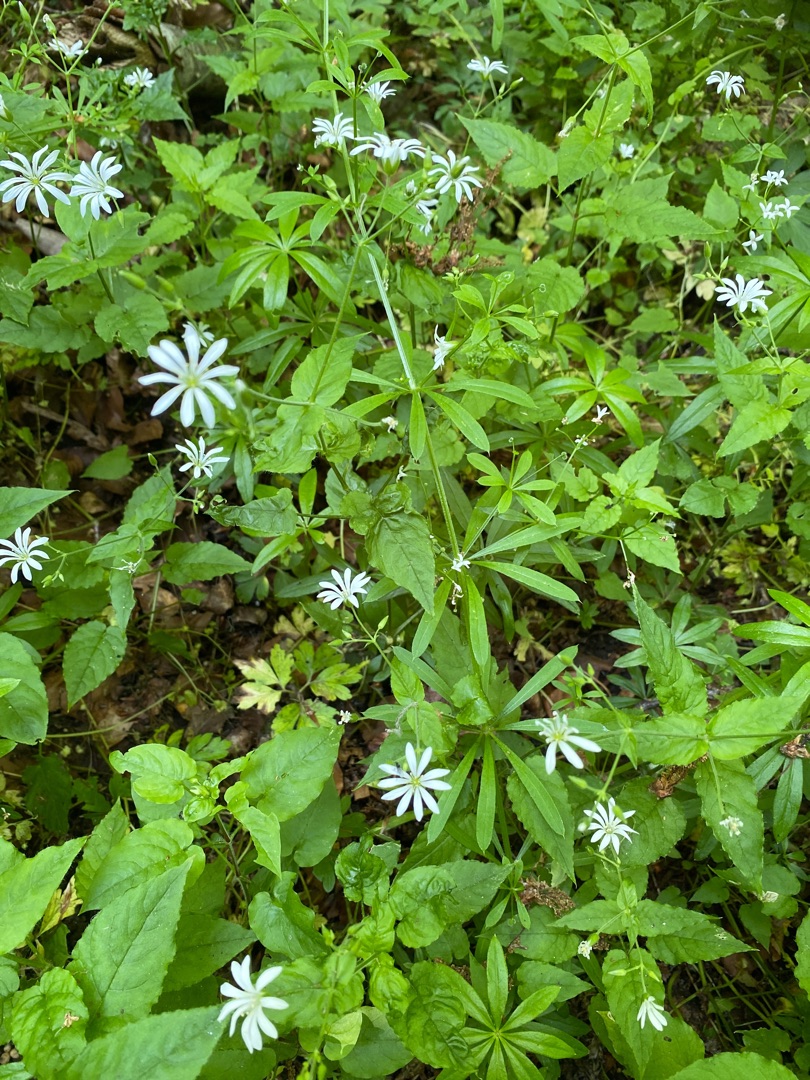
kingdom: Plantae
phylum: Tracheophyta
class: Magnoliopsida
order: Caryophyllales
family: Caryophyllaceae
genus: Stellaria
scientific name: Stellaria nemorum
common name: Lund-fladstjerne
